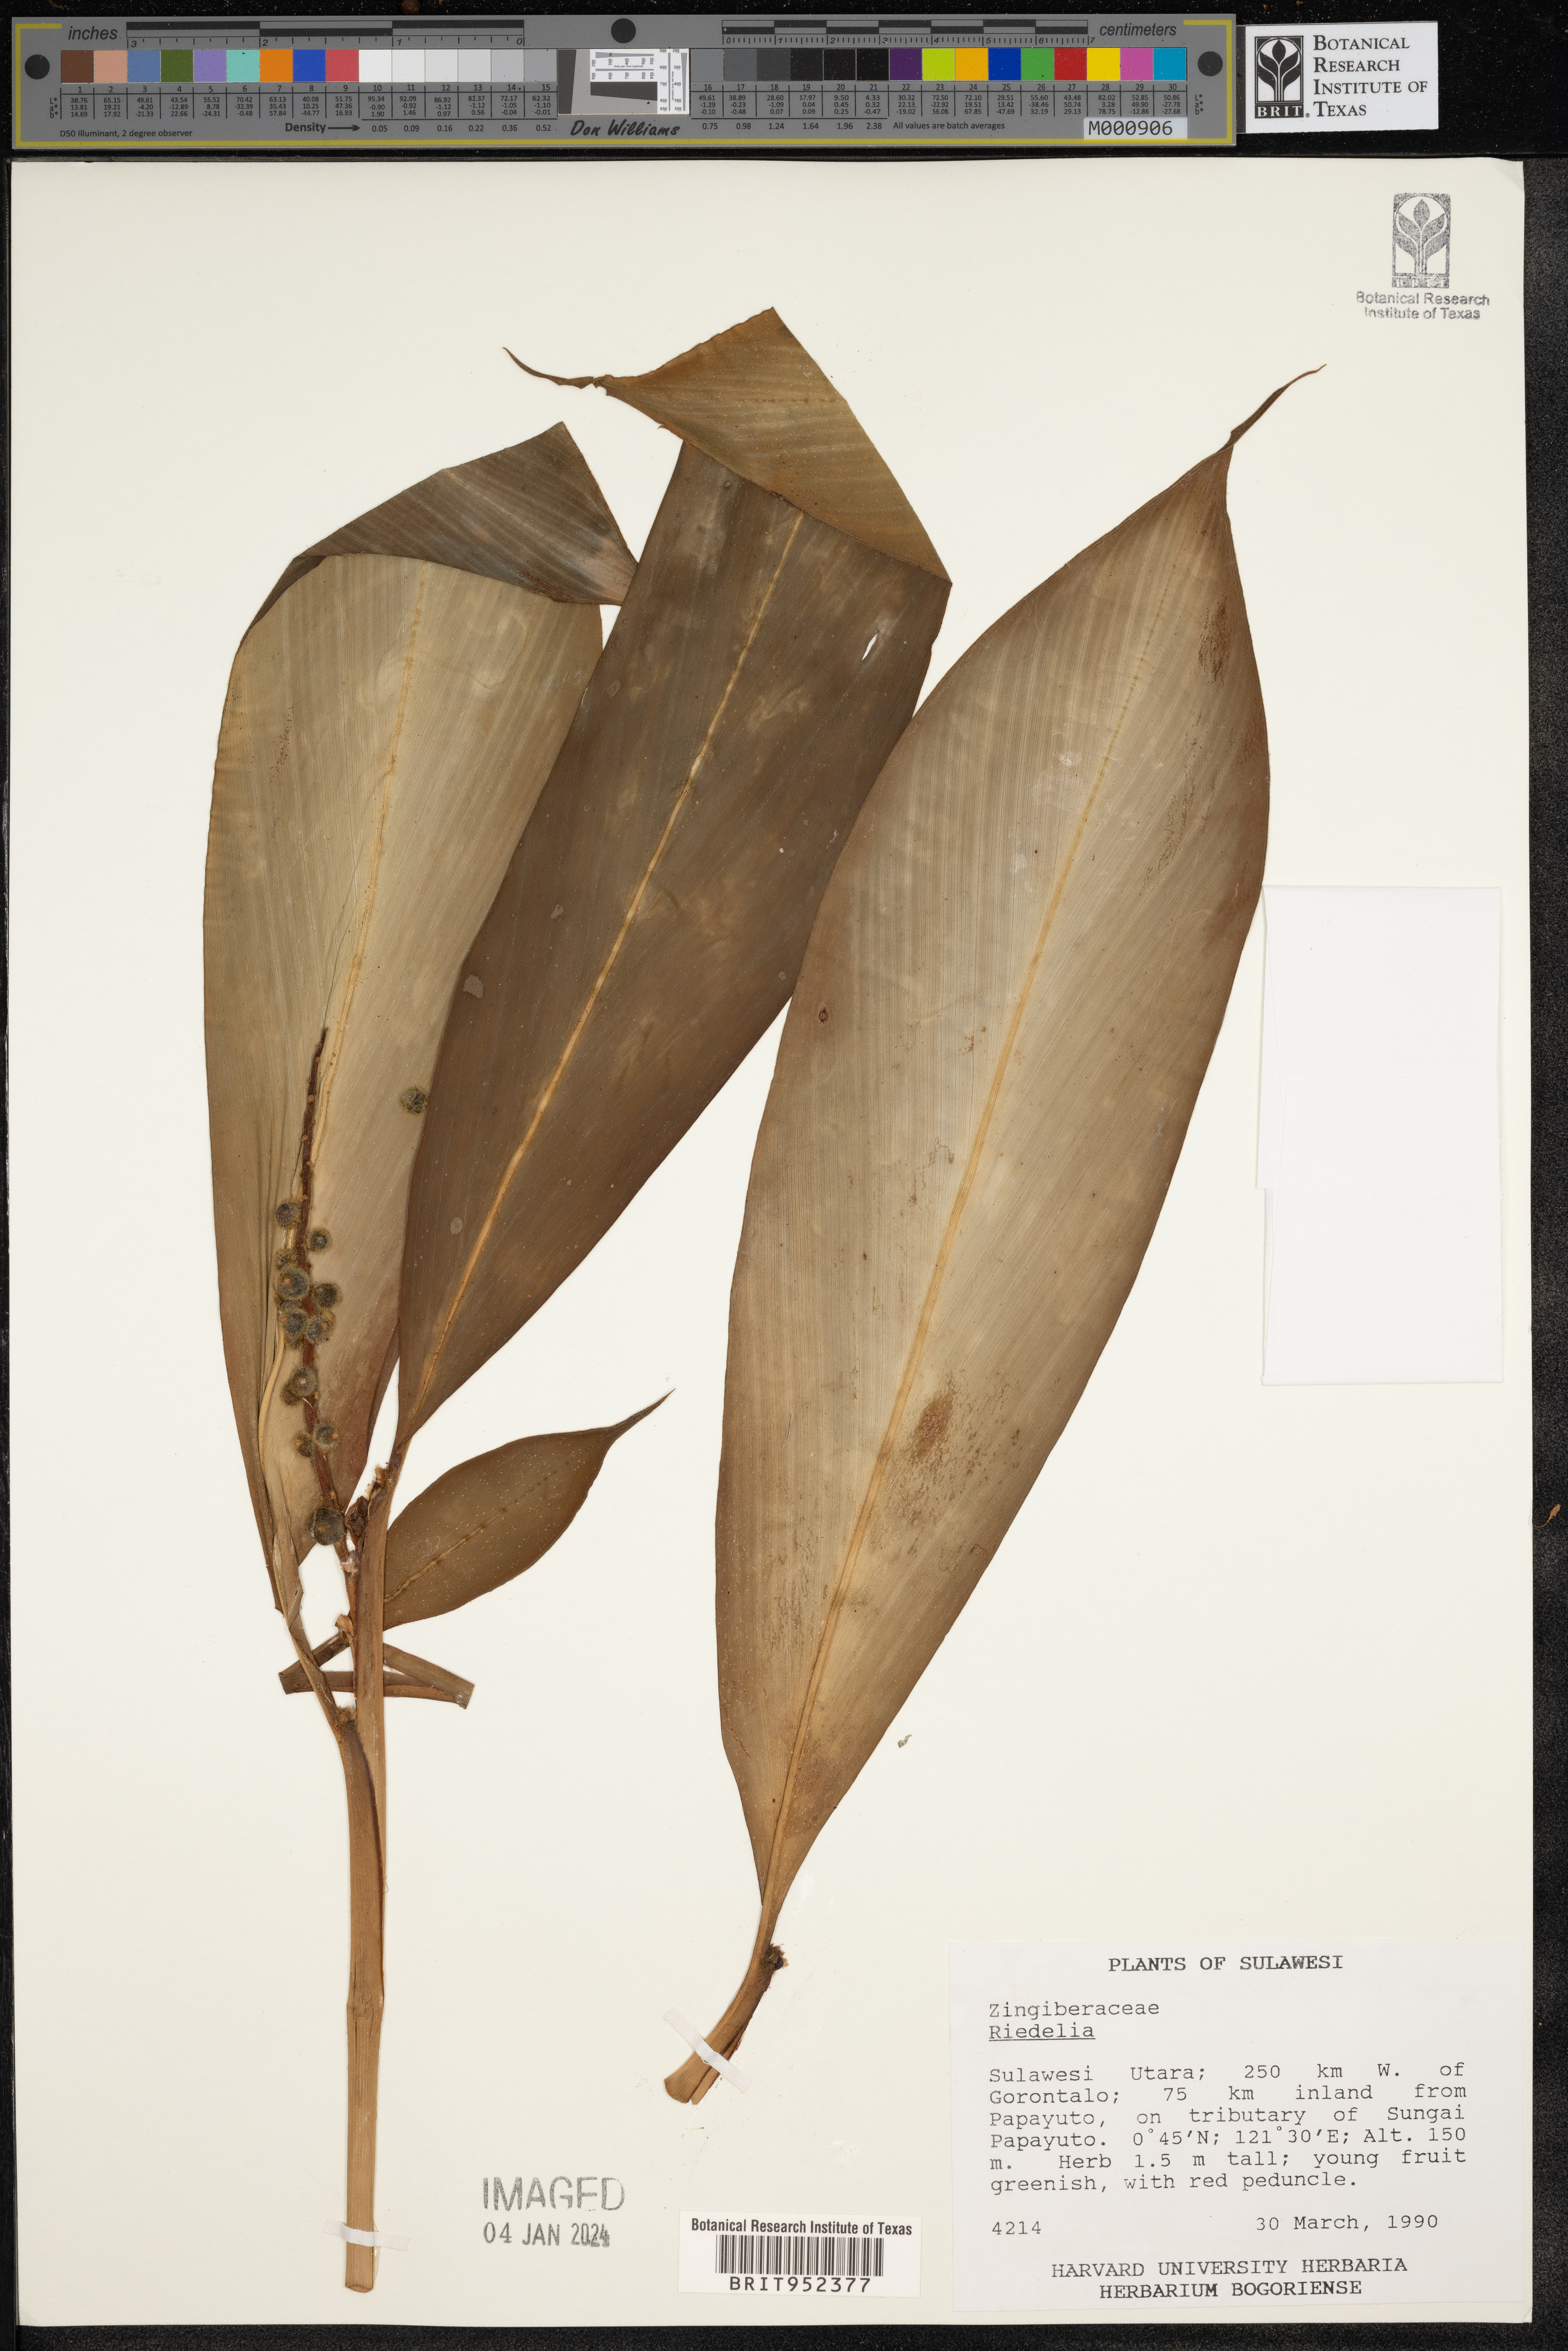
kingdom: Plantae
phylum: Tracheophyta
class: Liliopsida
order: Zingiberales
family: Zingiberaceae
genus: Riedelia
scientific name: Riedelia
